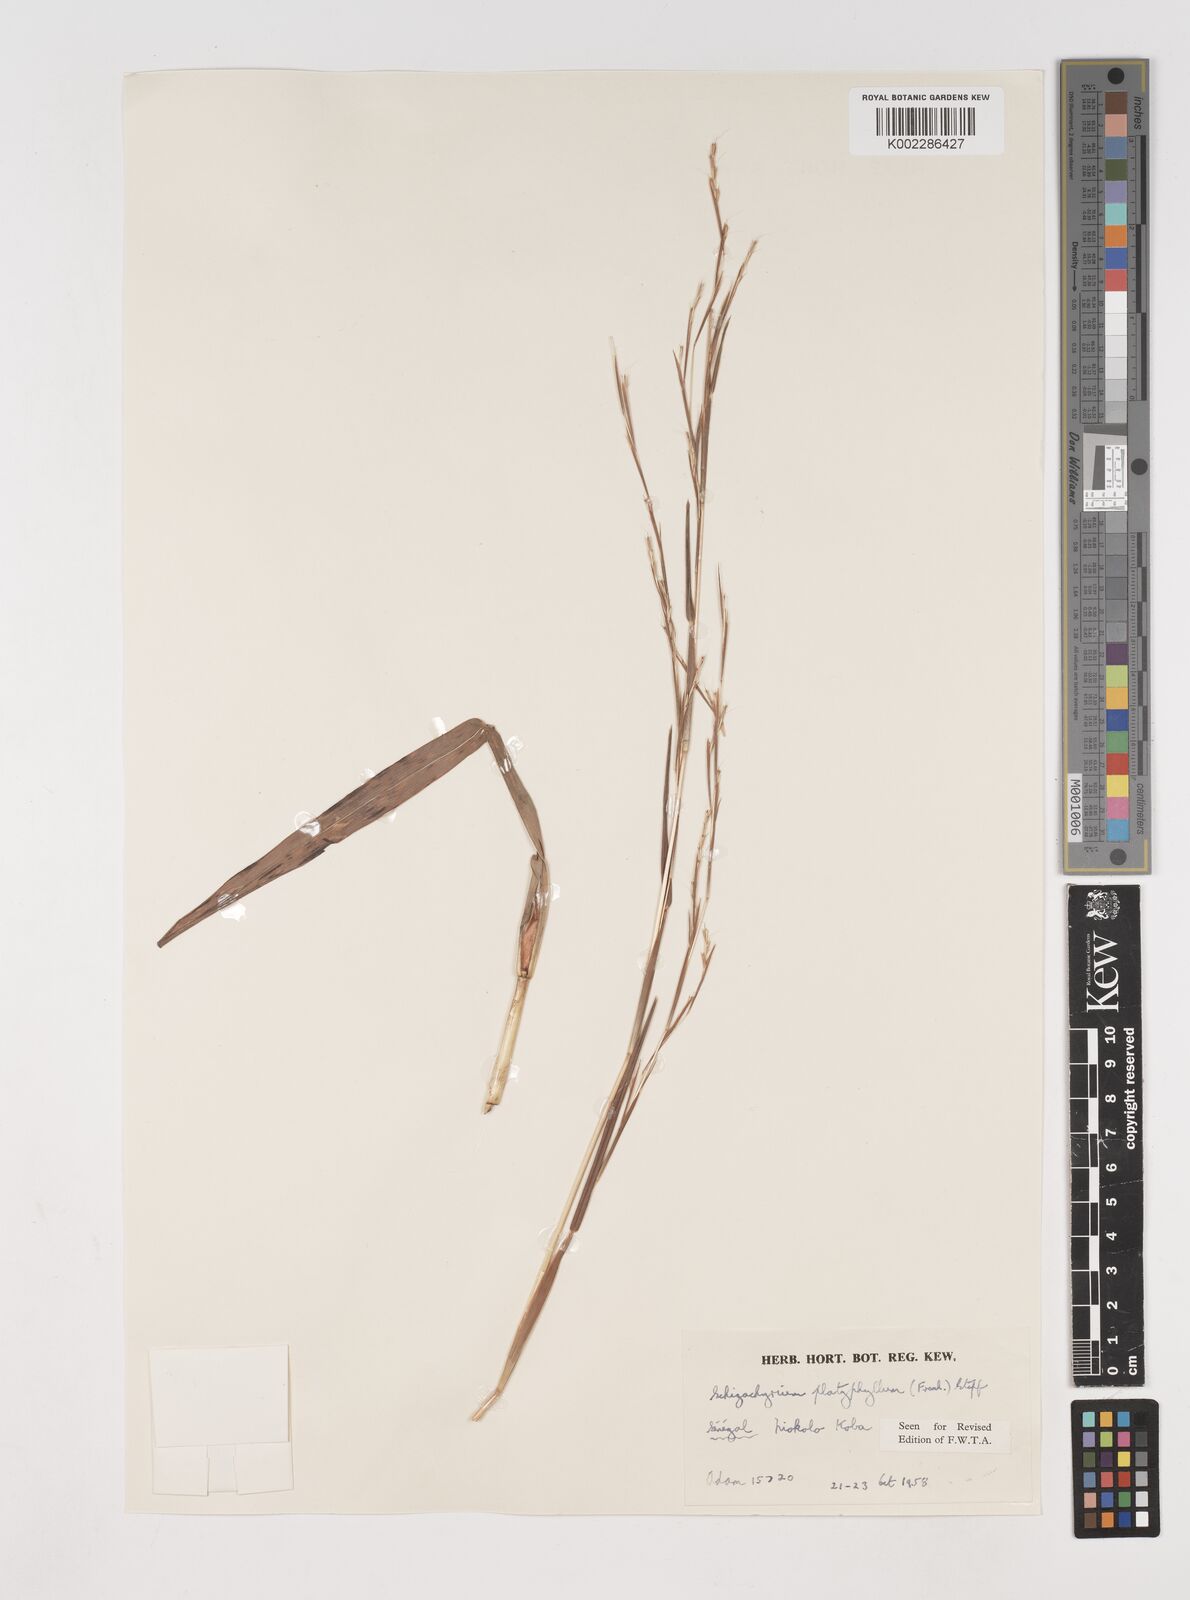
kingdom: Plantae
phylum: Tracheophyta
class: Liliopsida
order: Poales
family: Poaceae
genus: Schizachyrium
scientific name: Schizachyrium platyphyllum
